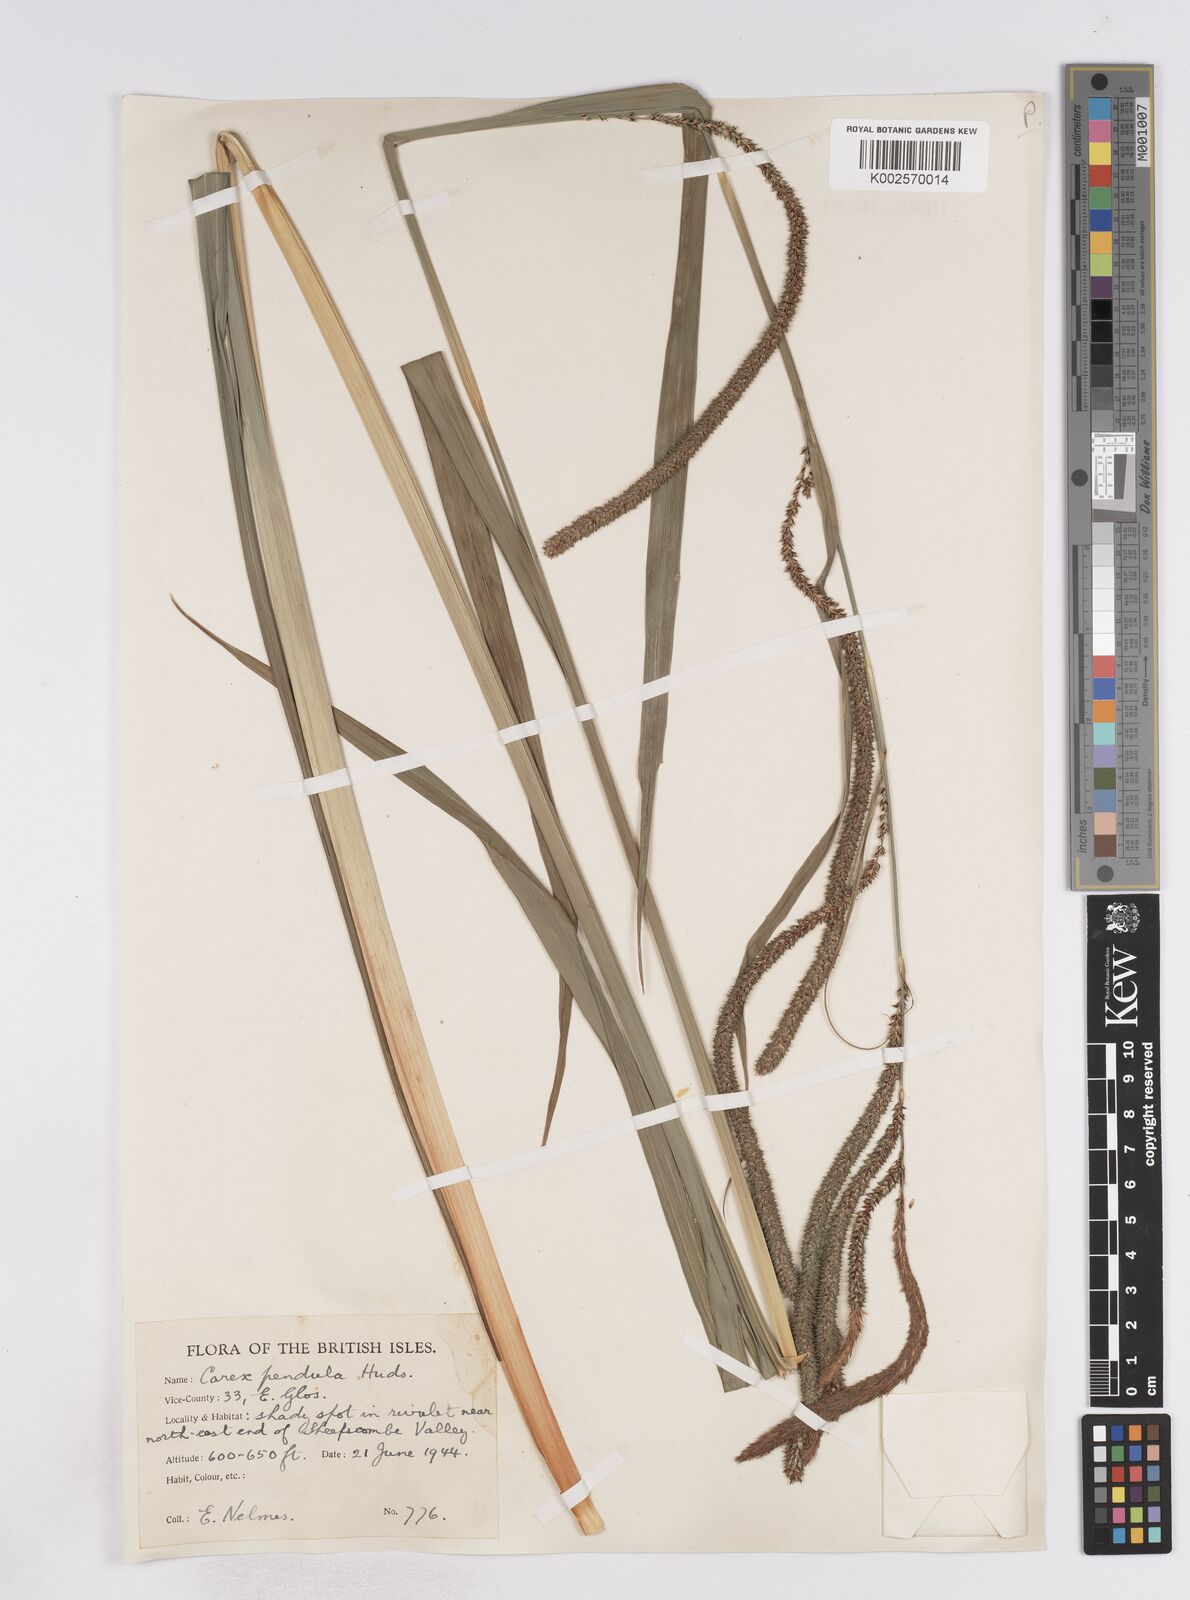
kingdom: Plantae
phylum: Tracheophyta
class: Liliopsida
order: Poales
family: Cyperaceae
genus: Carex
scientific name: Carex pendula
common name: Pendulous sedge
